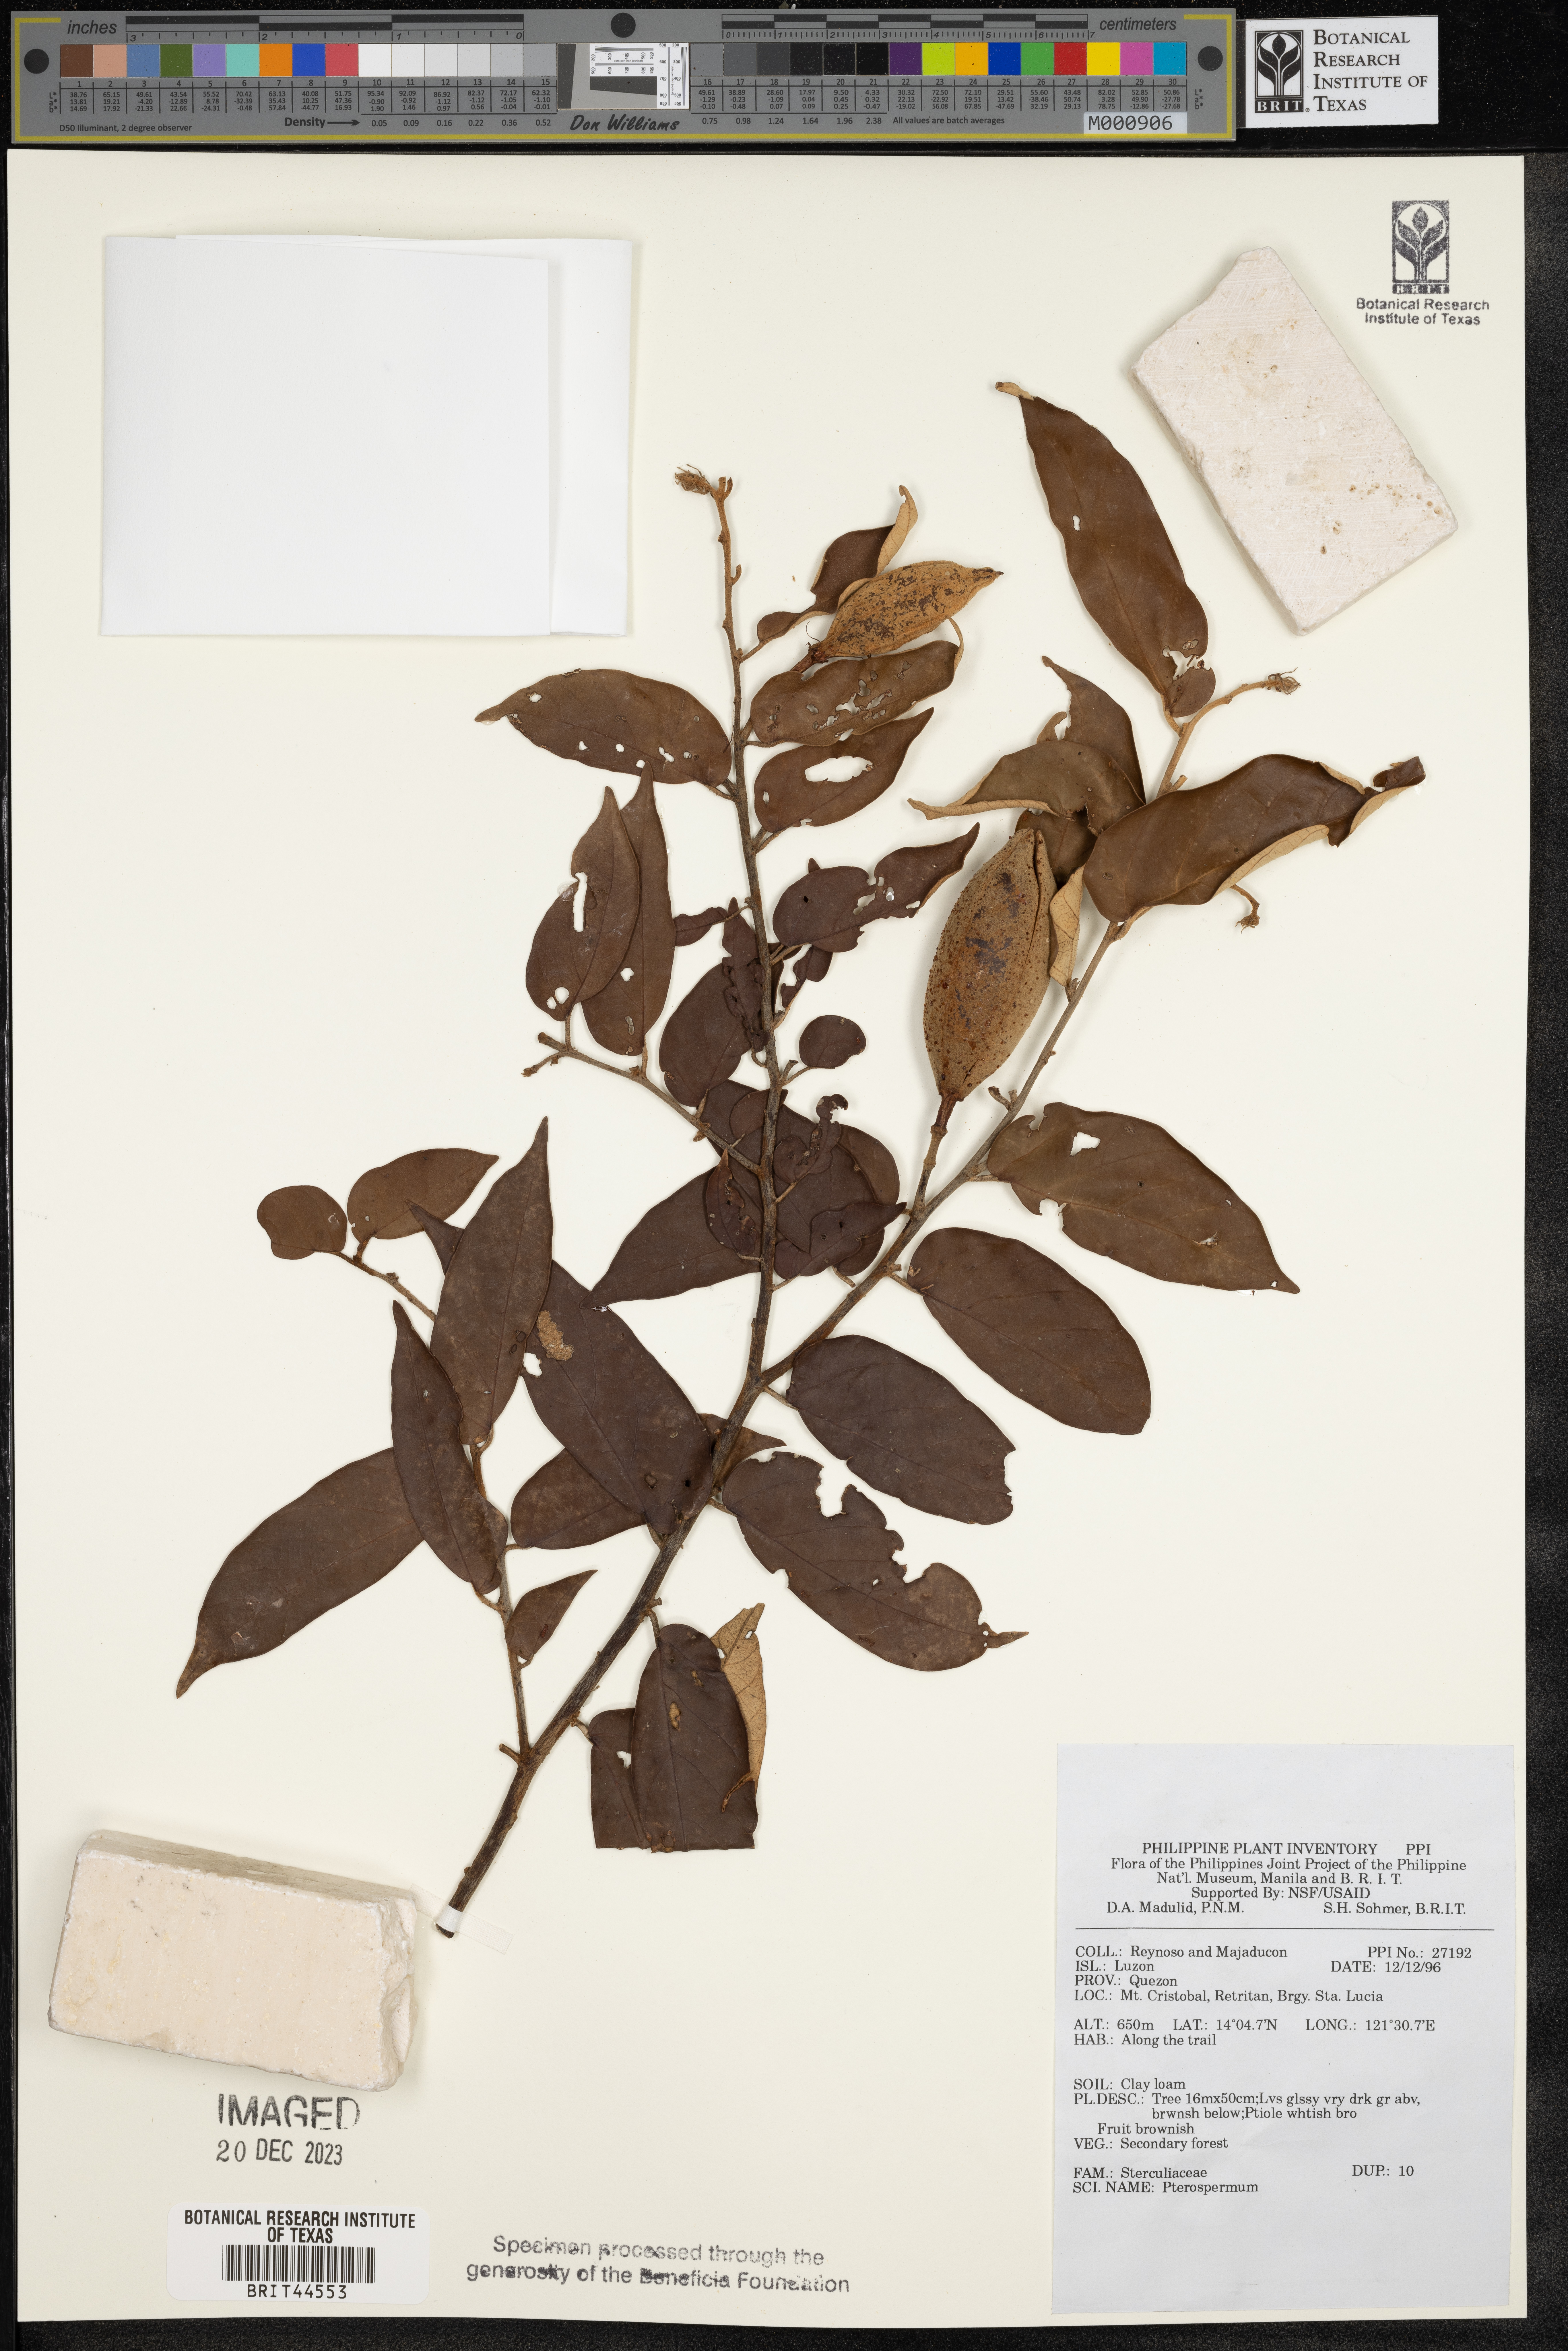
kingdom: Plantae
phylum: Tracheophyta
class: Magnoliopsida
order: Malvales
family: Malvaceae
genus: Pterospermum
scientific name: Pterospermum
